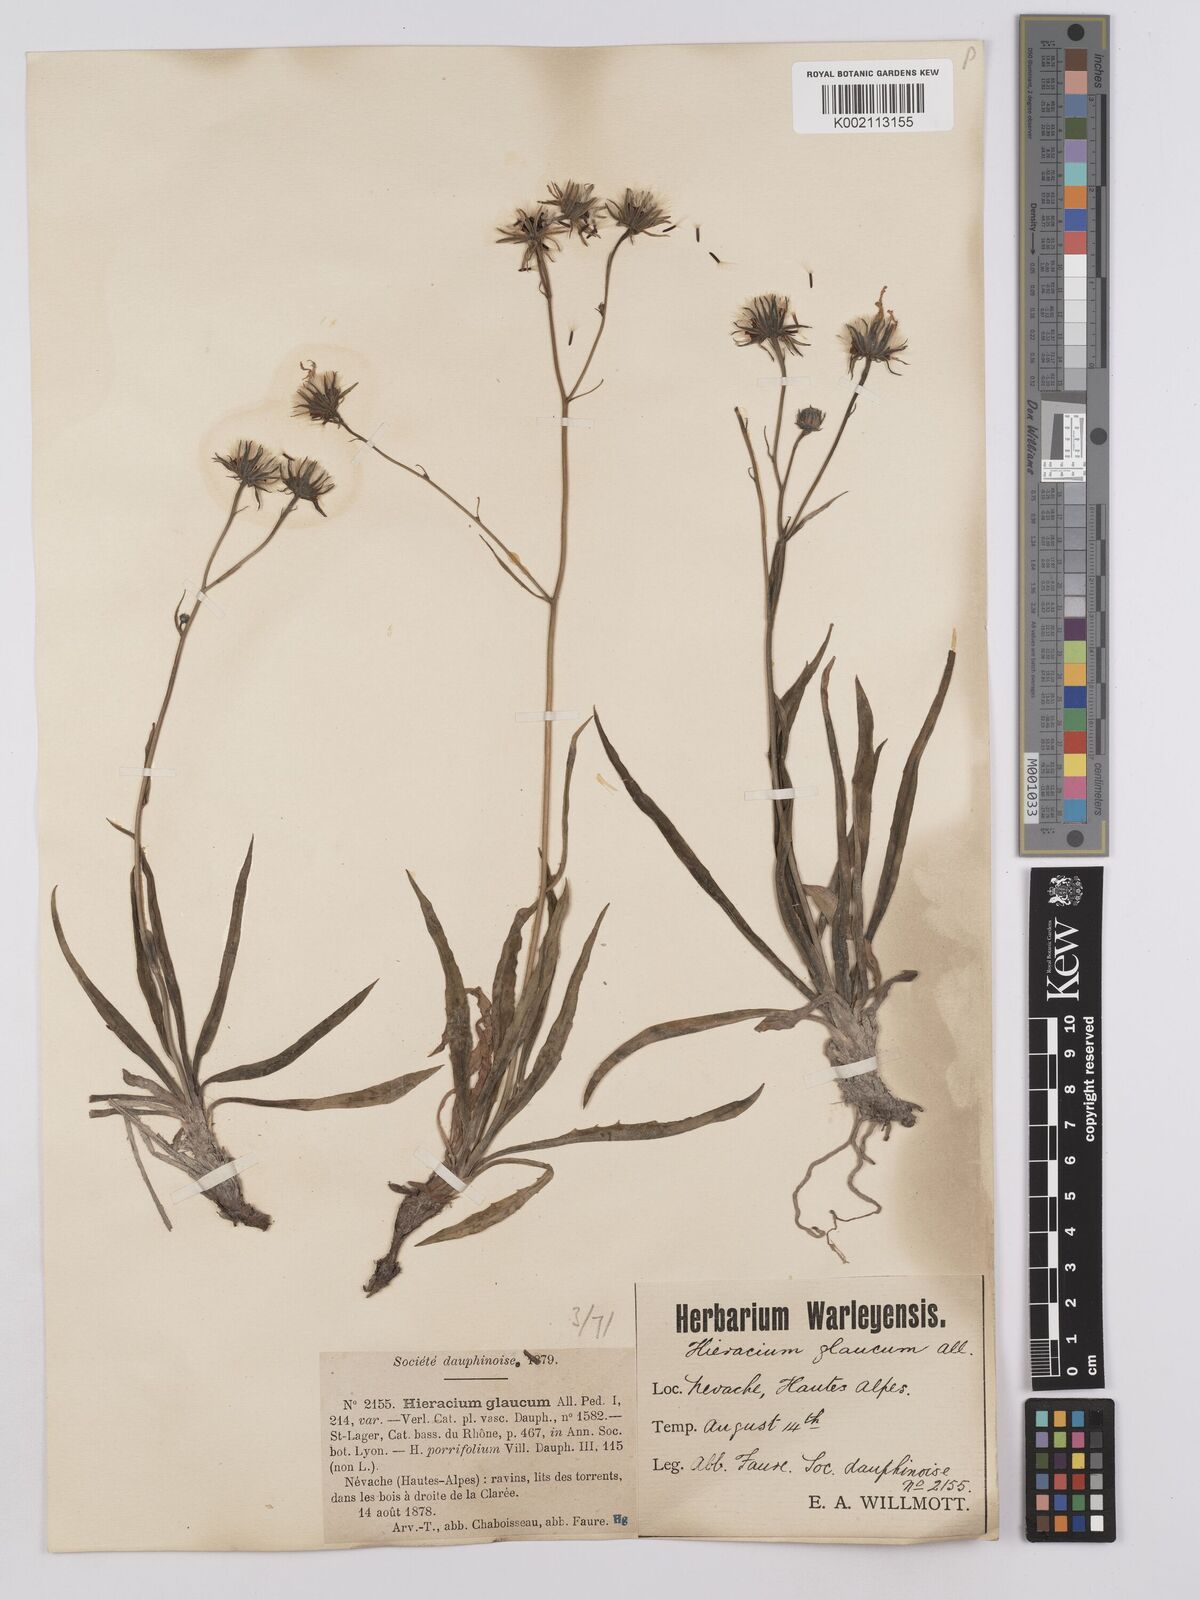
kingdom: Plantae
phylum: Tracheophyta
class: Magnoliopsida
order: Asterales
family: Asteraceae
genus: Hieracium
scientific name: Hieracium glaucum
